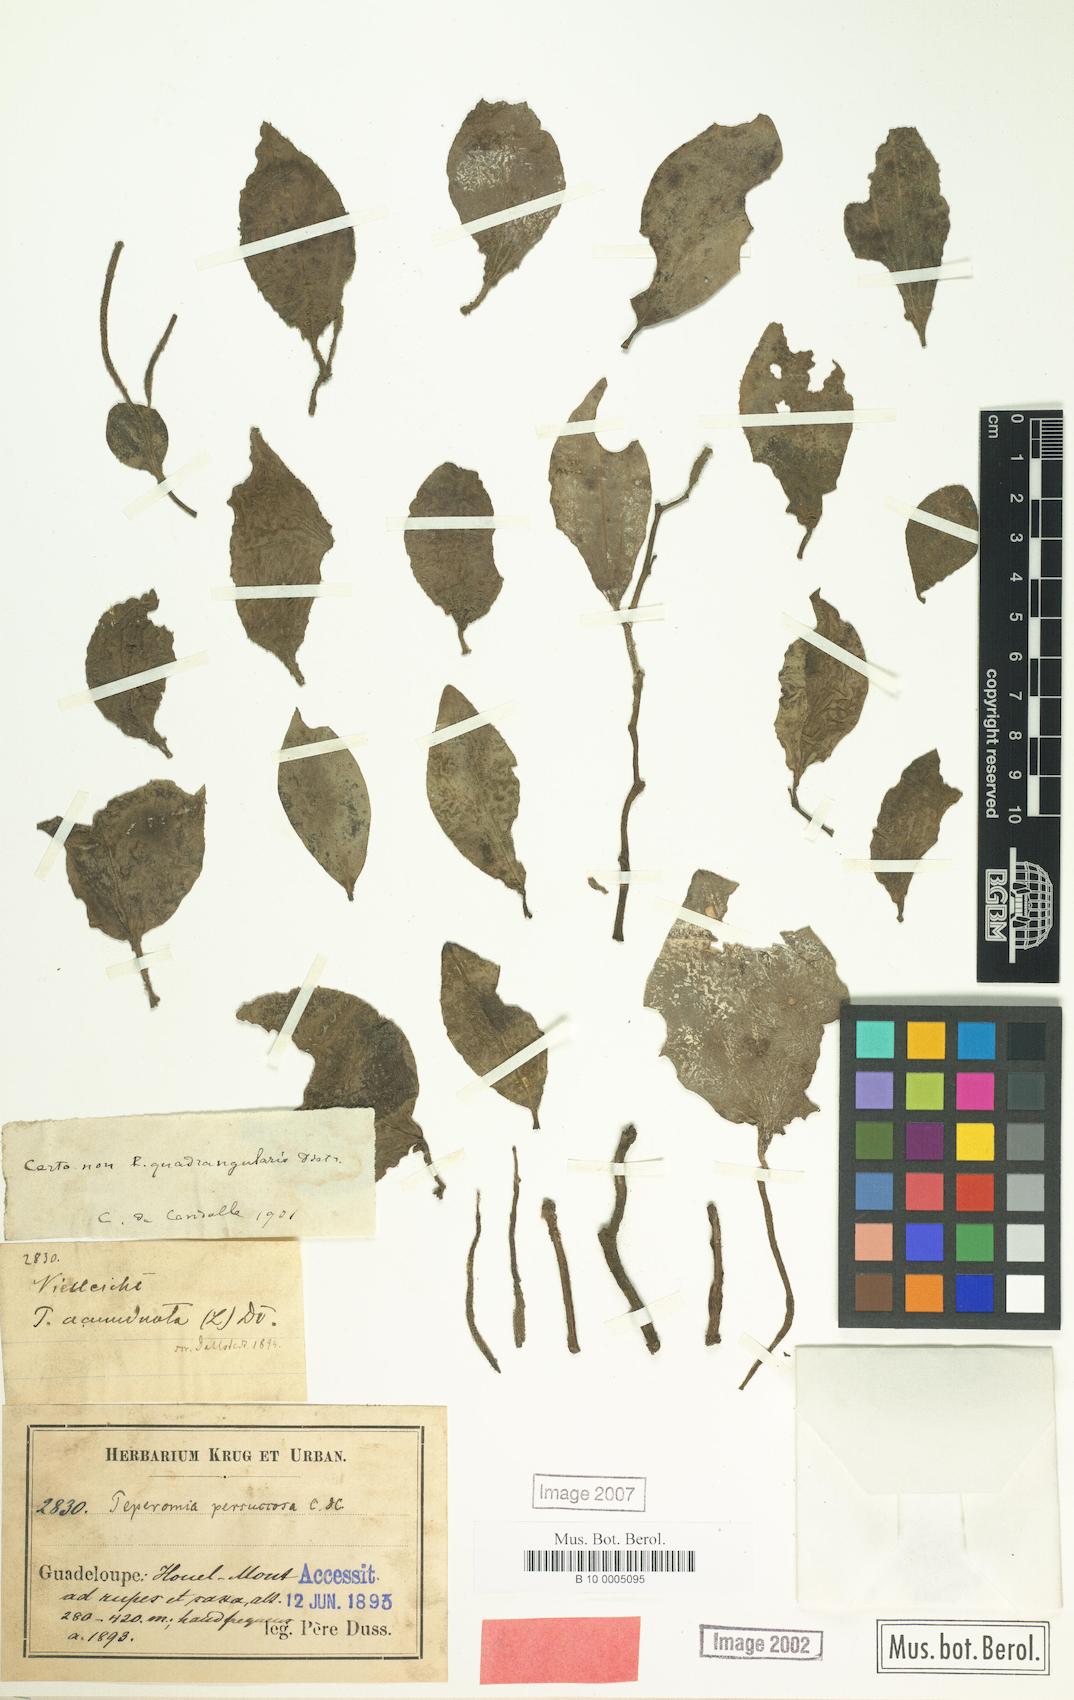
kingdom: Plantae
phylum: Tracheophyta
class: Magnoliopsida
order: Piperales
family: Piperaceae
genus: Peperomia
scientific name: Peperomia myrtifolia
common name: Myrtleleaf peperomia
